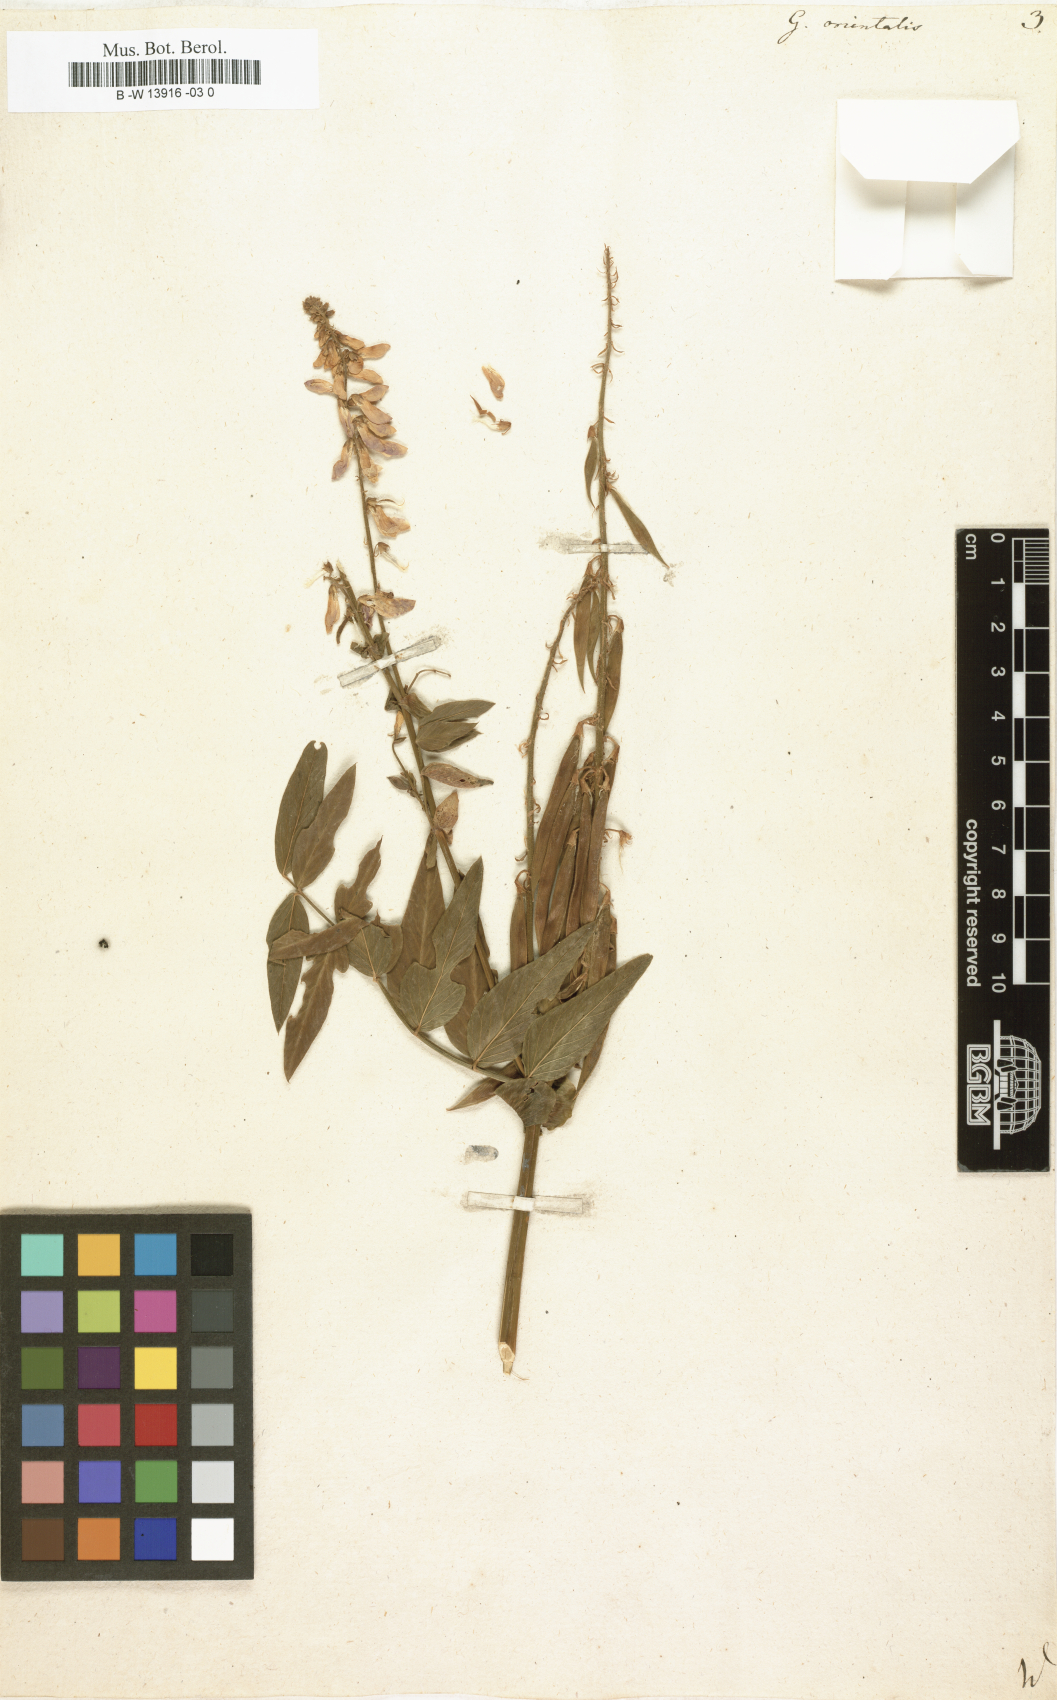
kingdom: Plantae
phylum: Tracheophyta
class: Magnoliopsida
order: Fabales
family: Fabaceae
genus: Galega
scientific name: Galega orientalis
